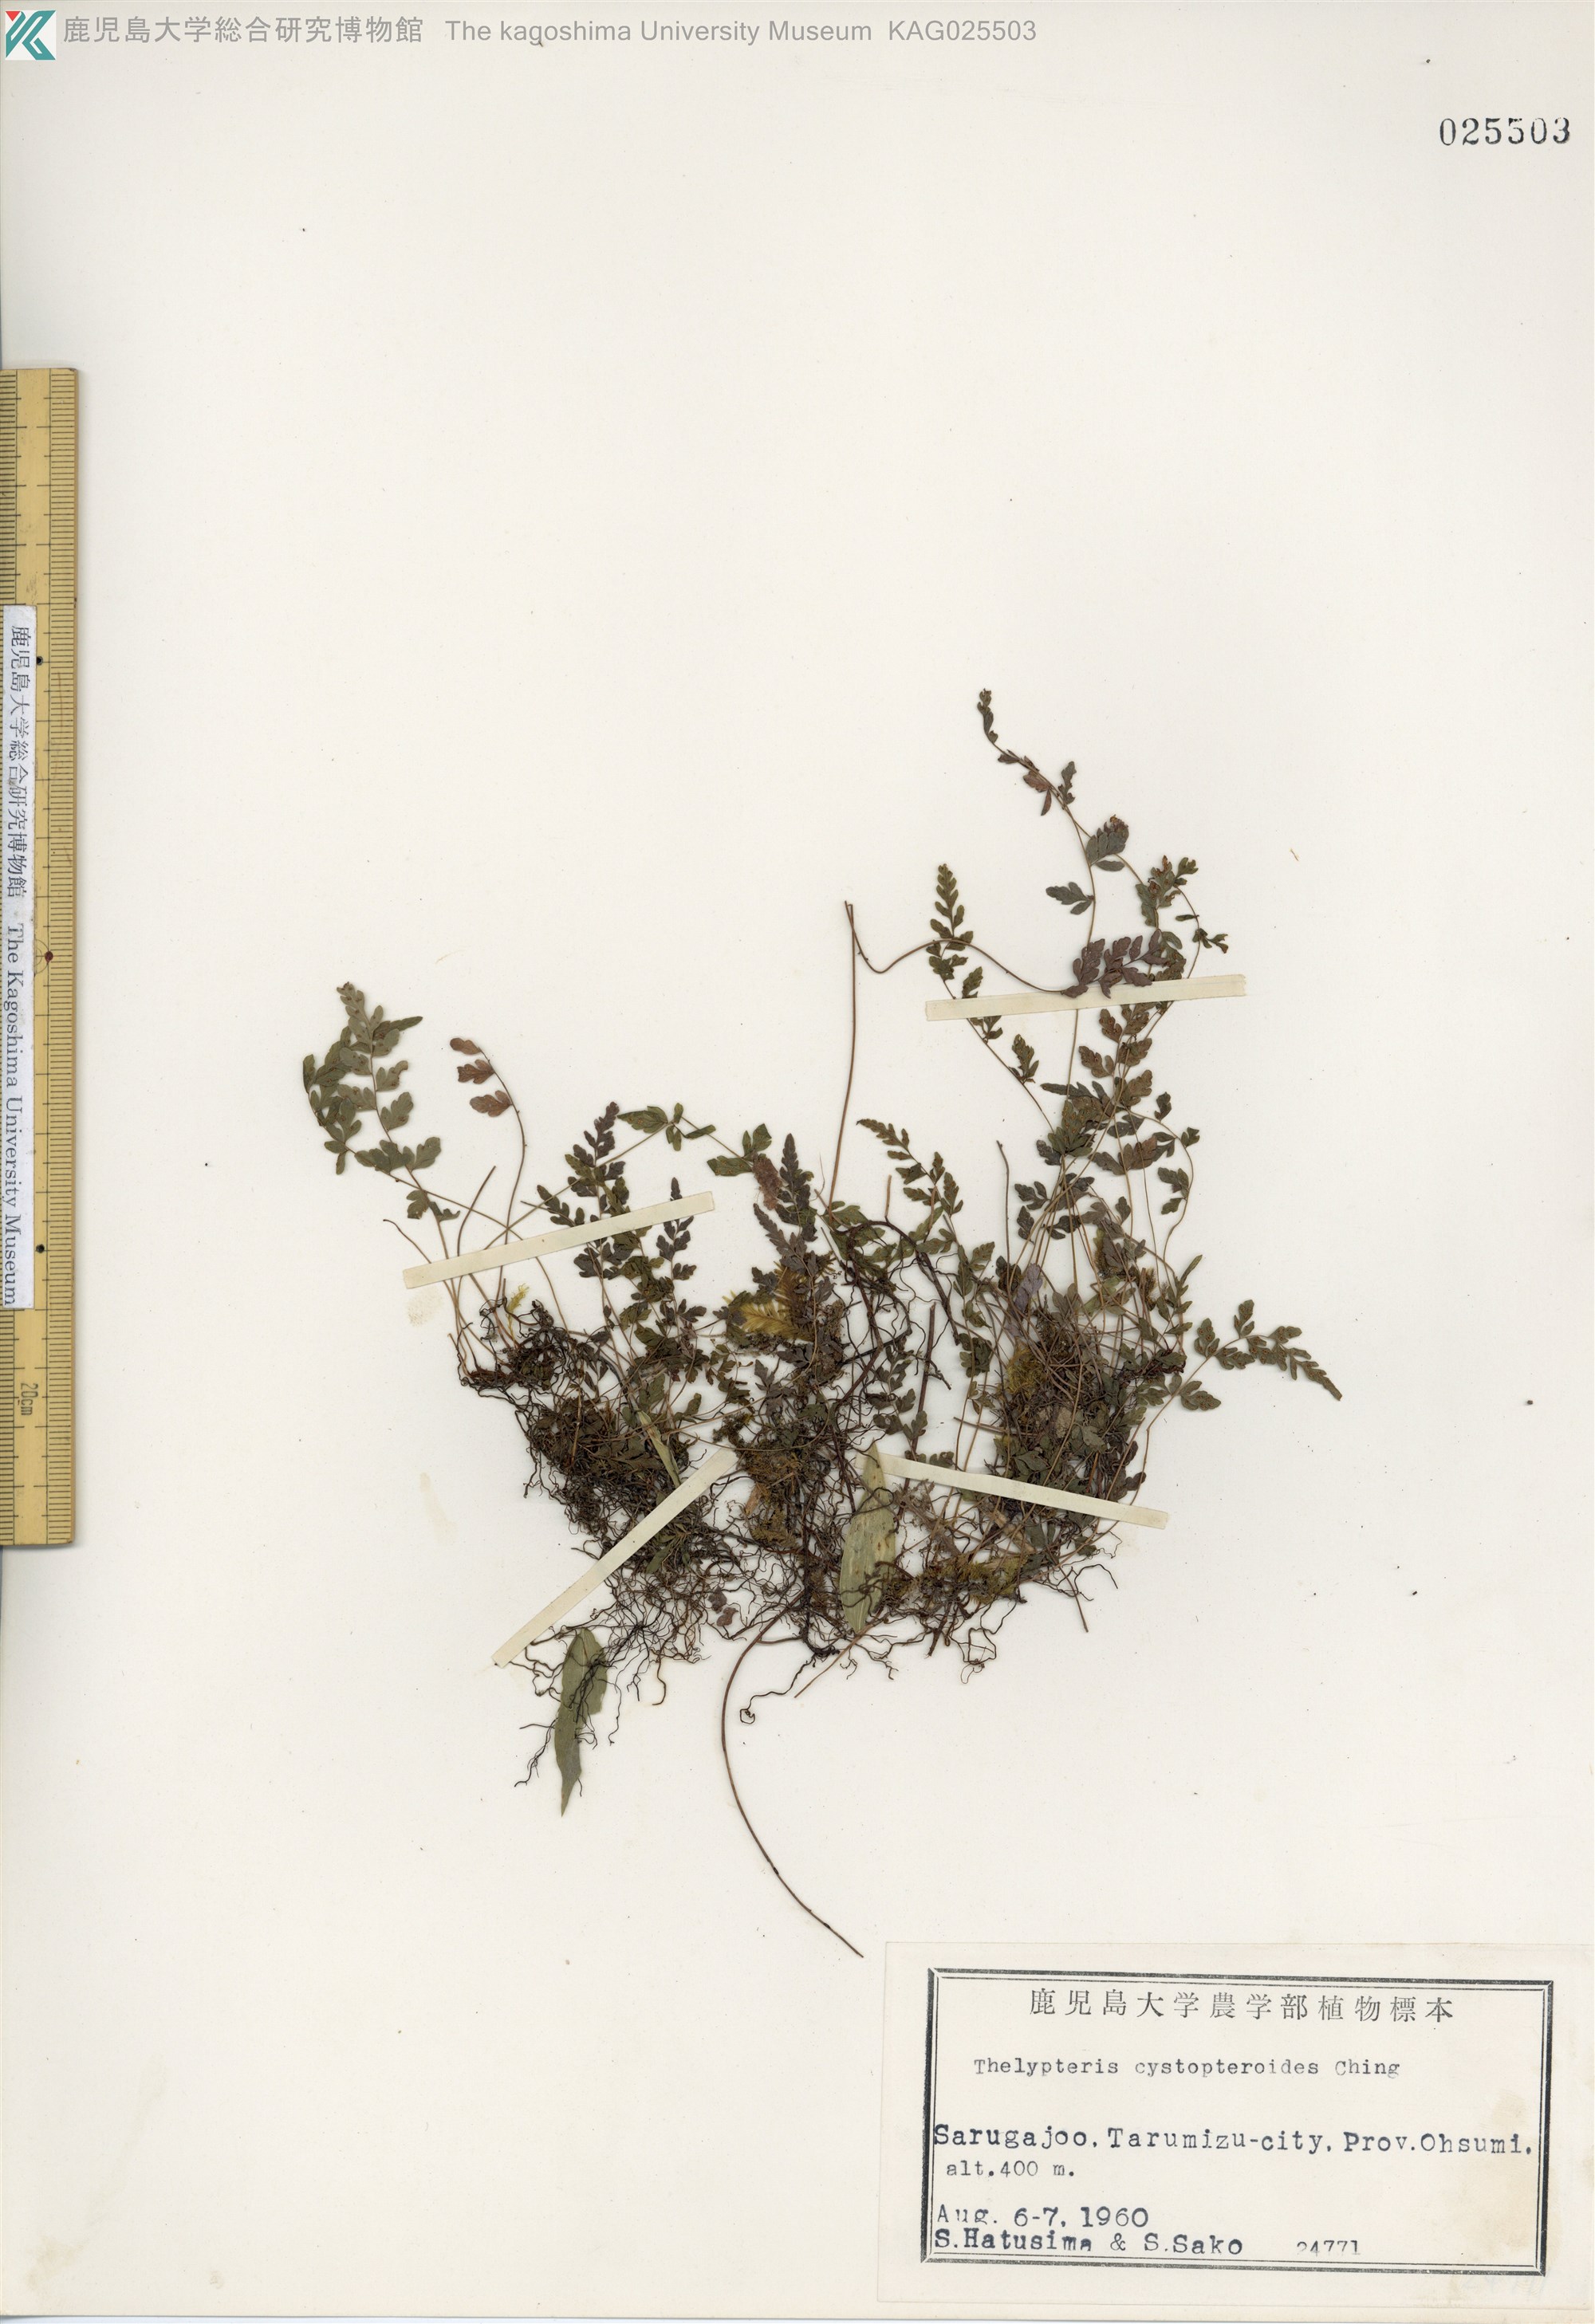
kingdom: Plantae
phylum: Tracheophyta
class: Polypodiopsida
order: Polypodiales
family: Thelypteridaceae
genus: Amauropelta
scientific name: Amauropelta cystopteroides
